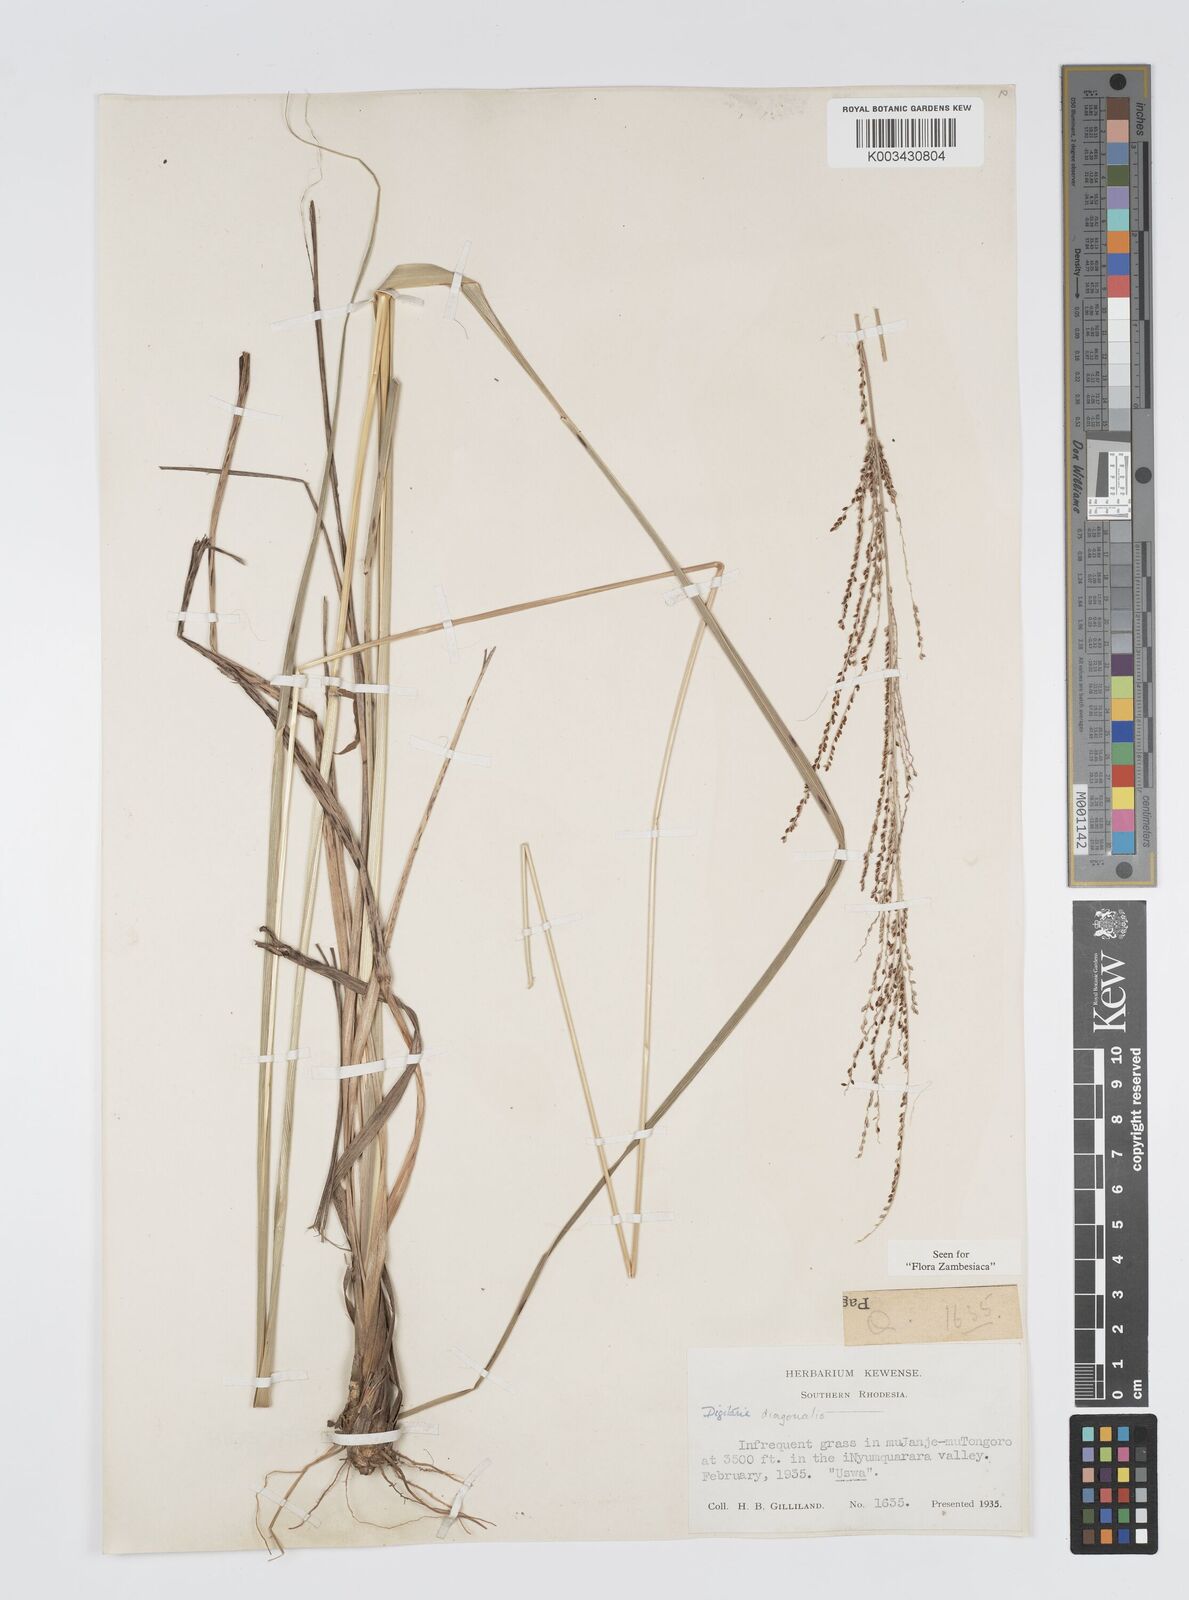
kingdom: Plantae
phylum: Tracheophyta
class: Liliopsida
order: Poales
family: Poaceae
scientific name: Poaceae
